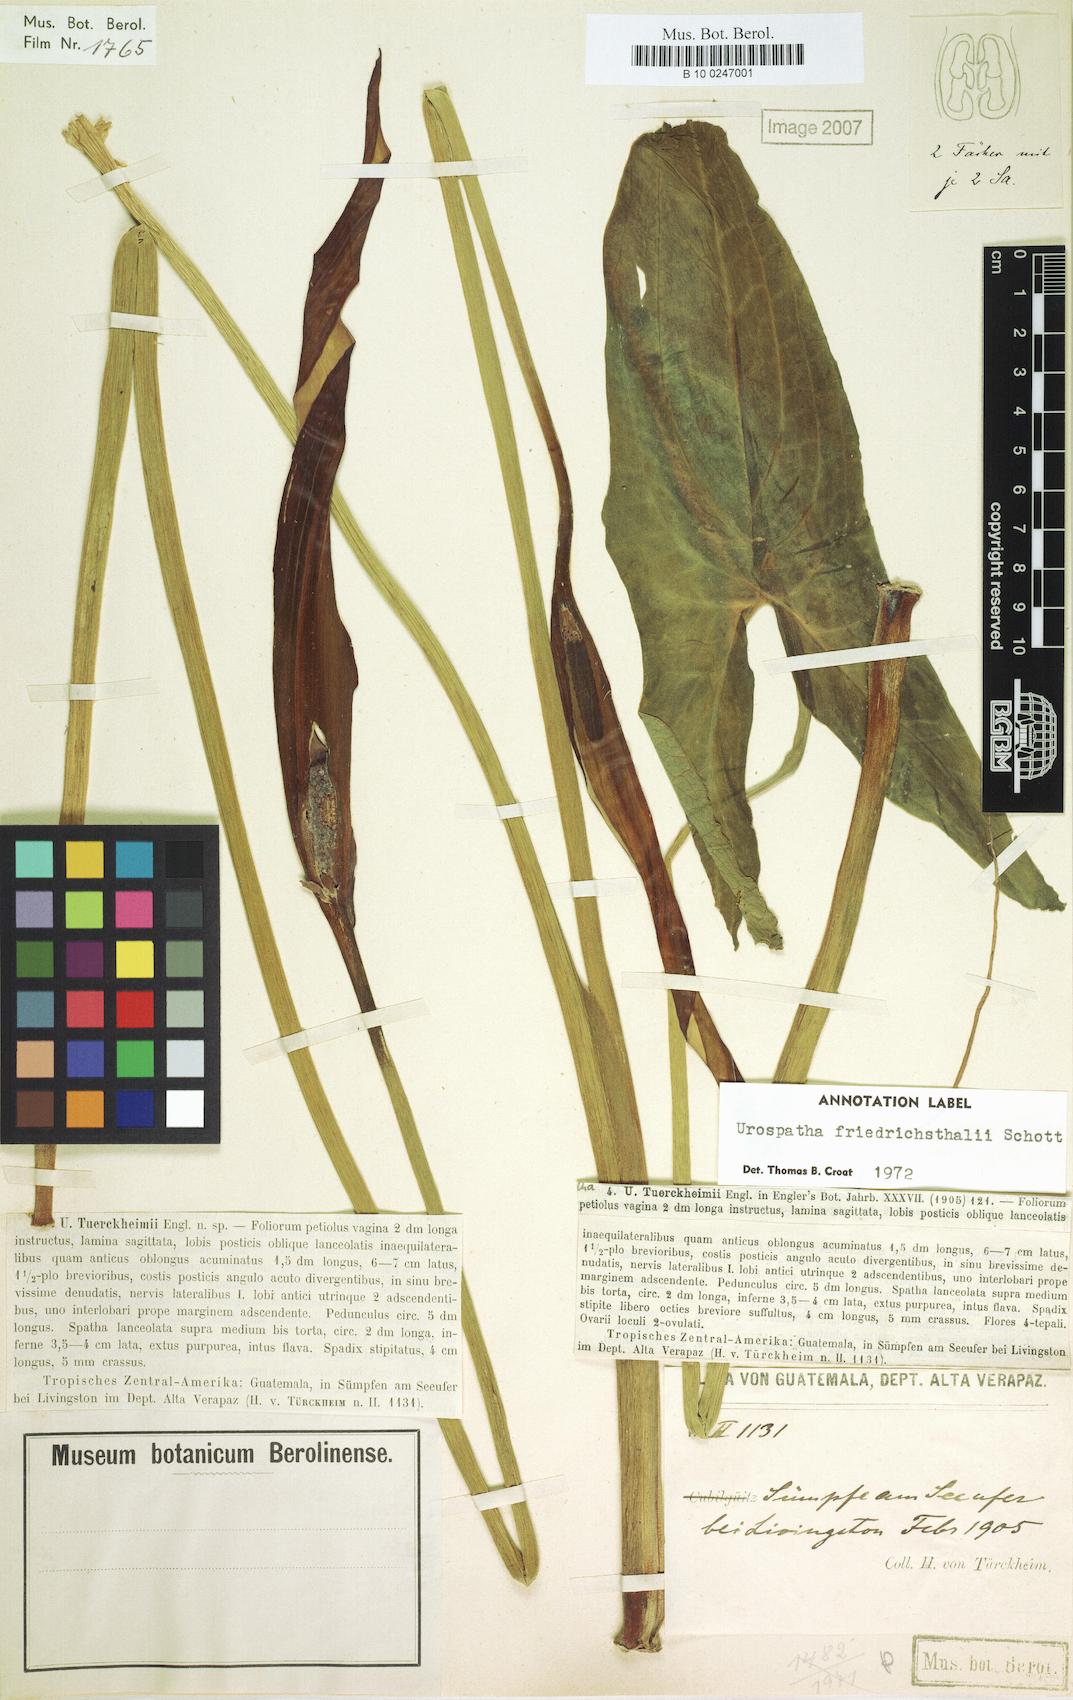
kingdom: Plantae
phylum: Tracheophyta
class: Liliopsida
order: Alismatales
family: Alismataceae
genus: Sagittaria
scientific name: Sagittaria latifolia
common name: Duck-potato
